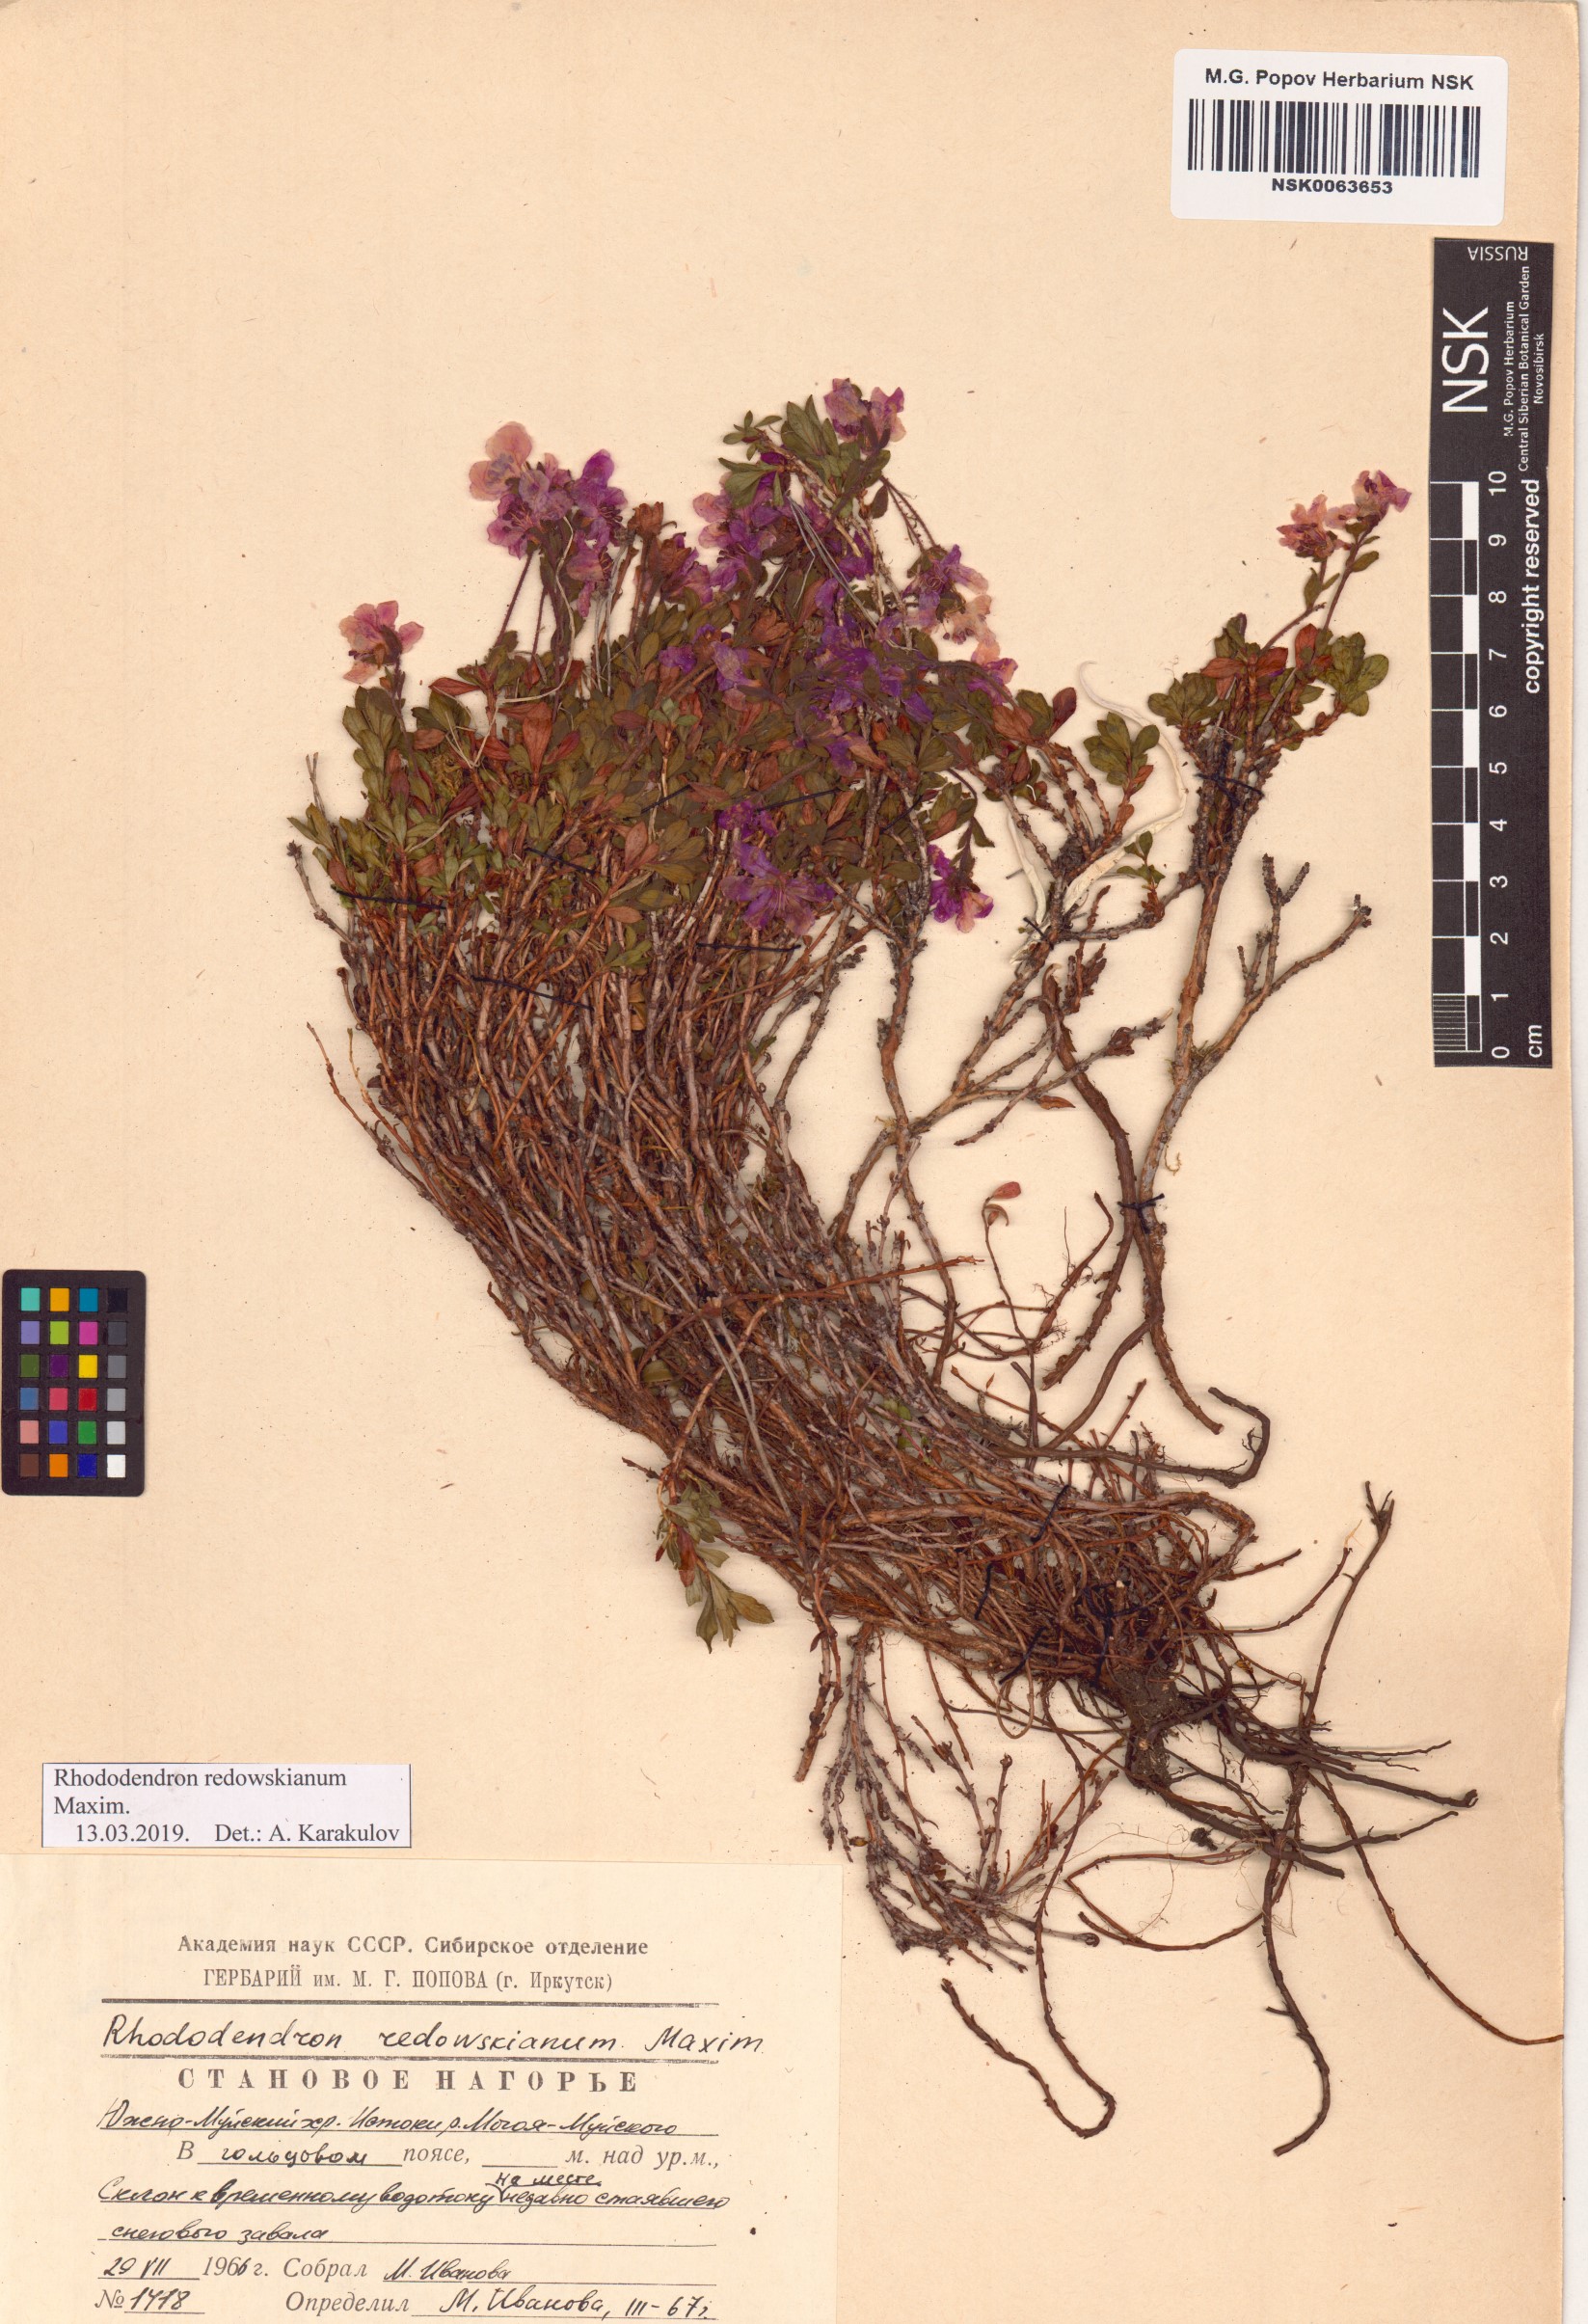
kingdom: Plantae
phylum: Tracheophyta
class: Magnoliopsida
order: Ericales
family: Ericaceae
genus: Rhododendron
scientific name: Rhododendron redowskianum
